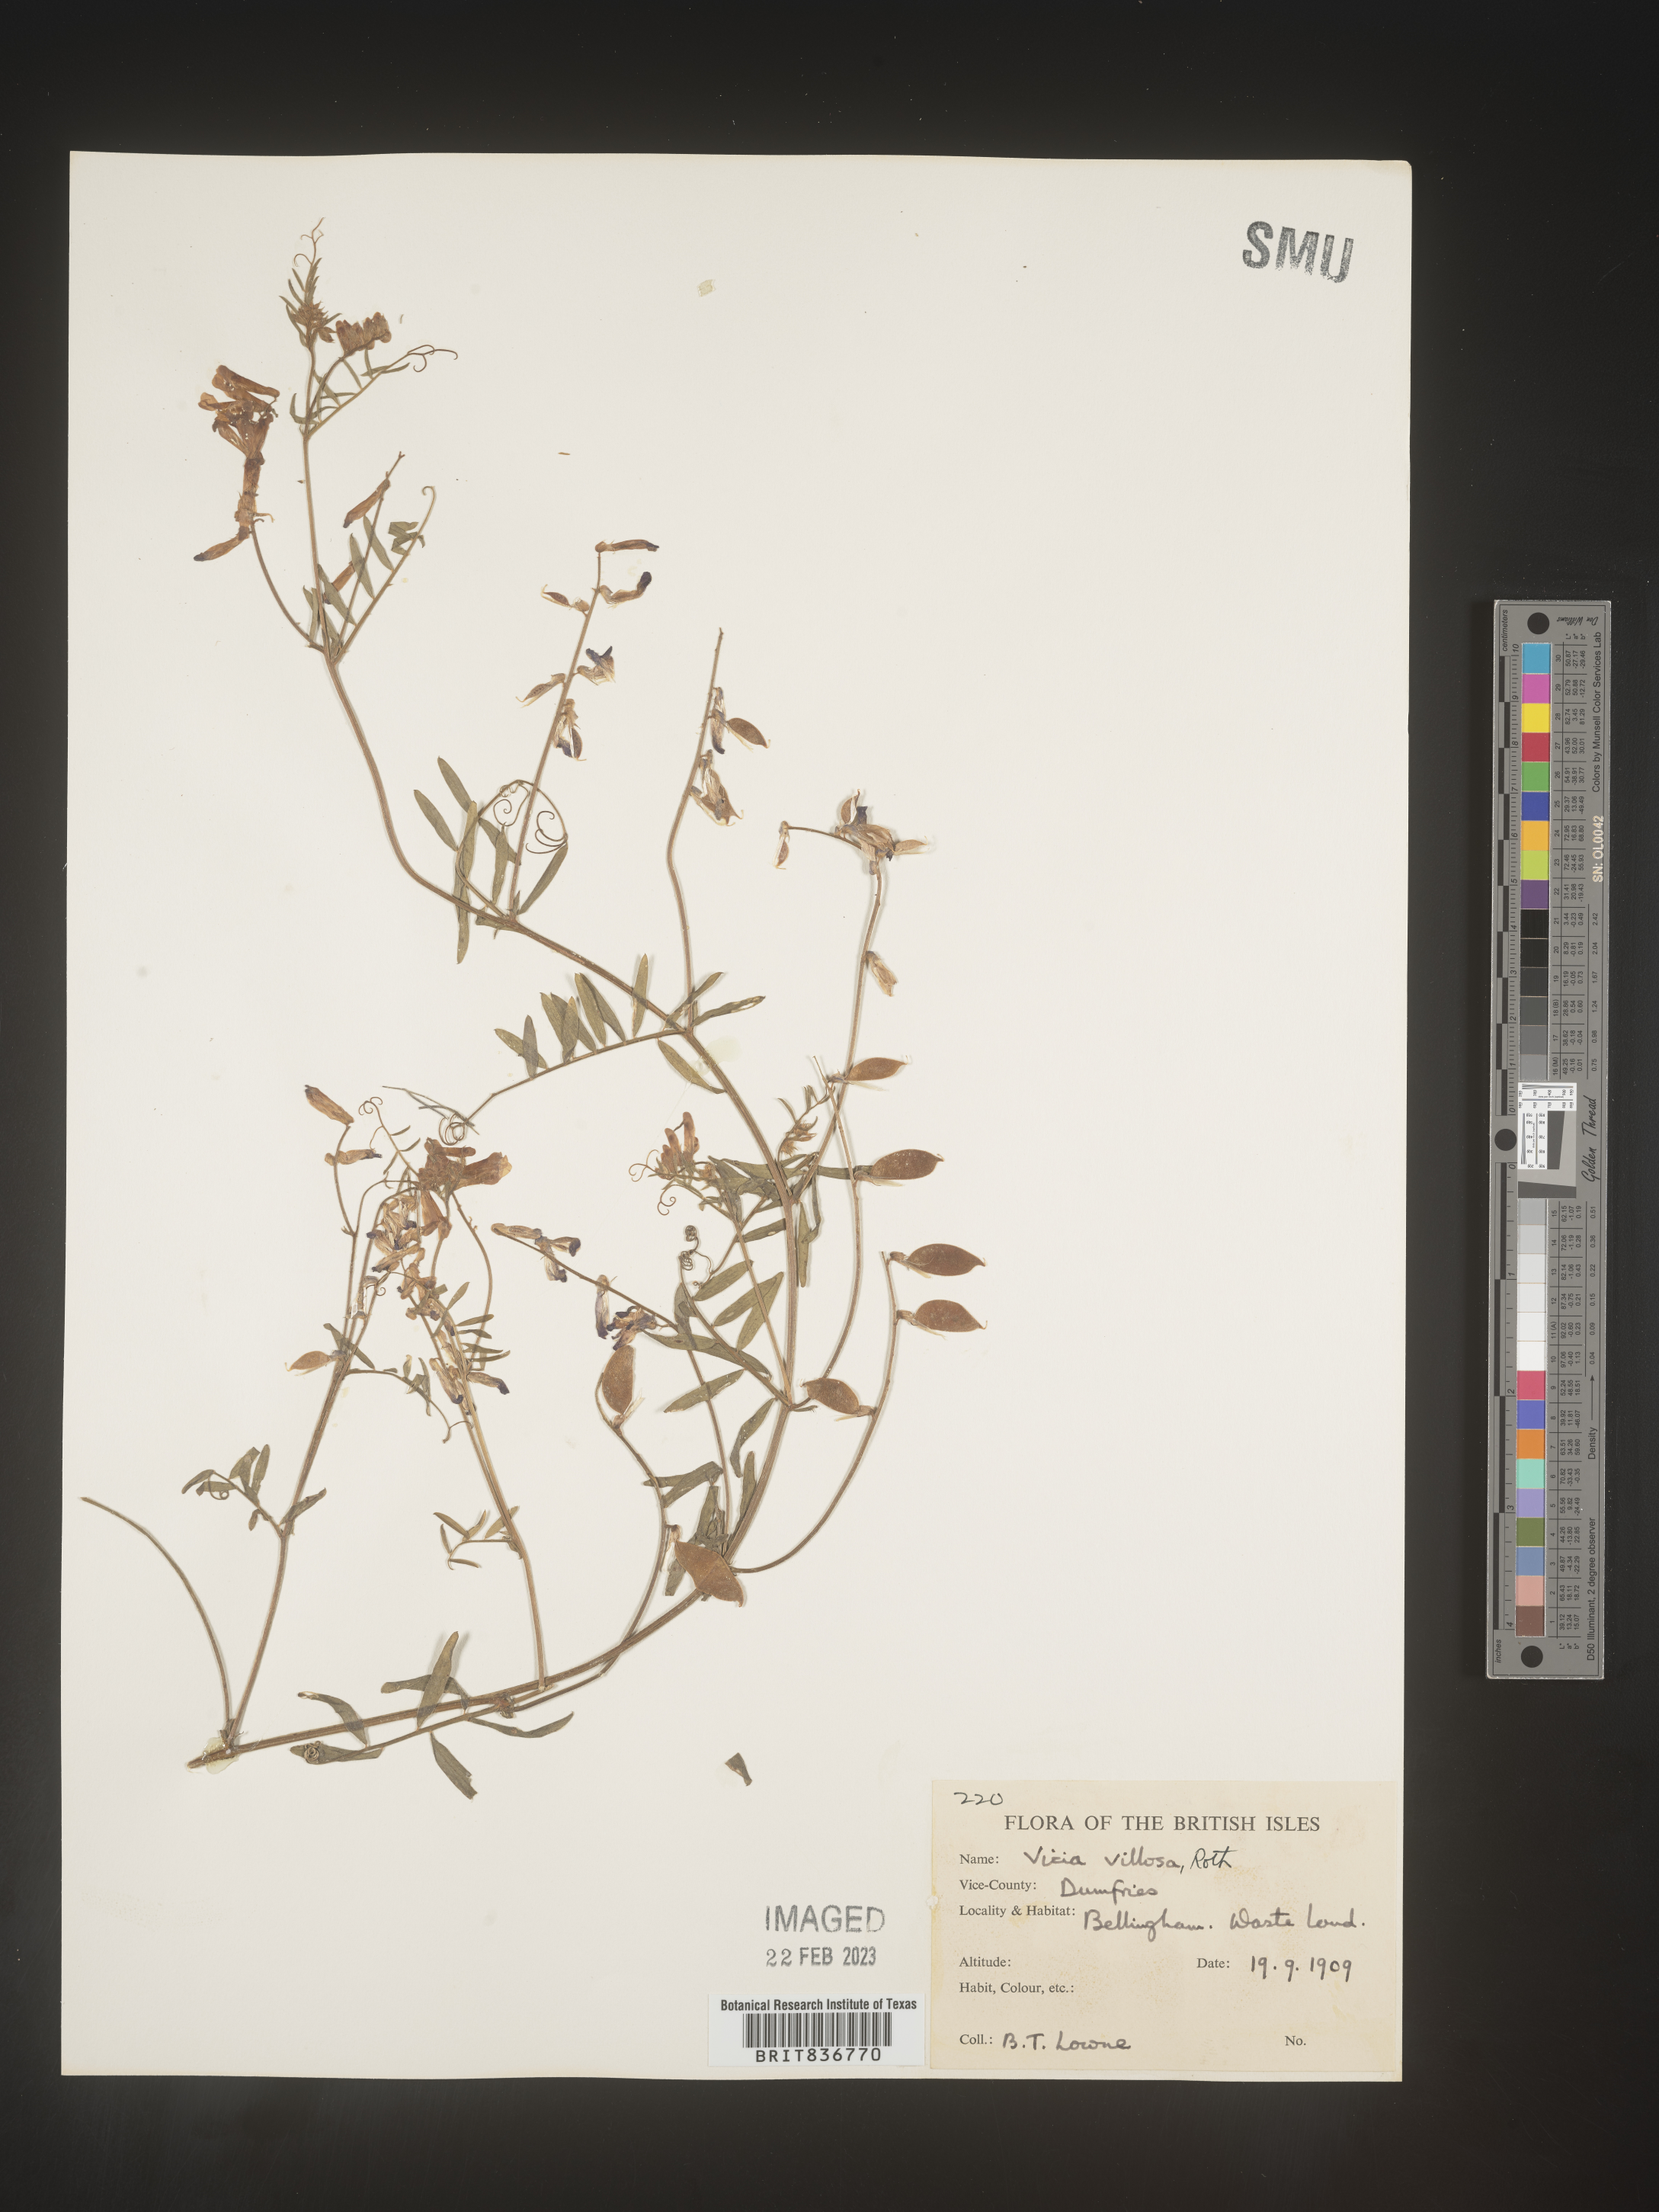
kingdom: Plantae
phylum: Tracheophyta
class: Magnoliopsida
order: Fabales
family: Fabaceae
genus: Vicia
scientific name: Vicia
